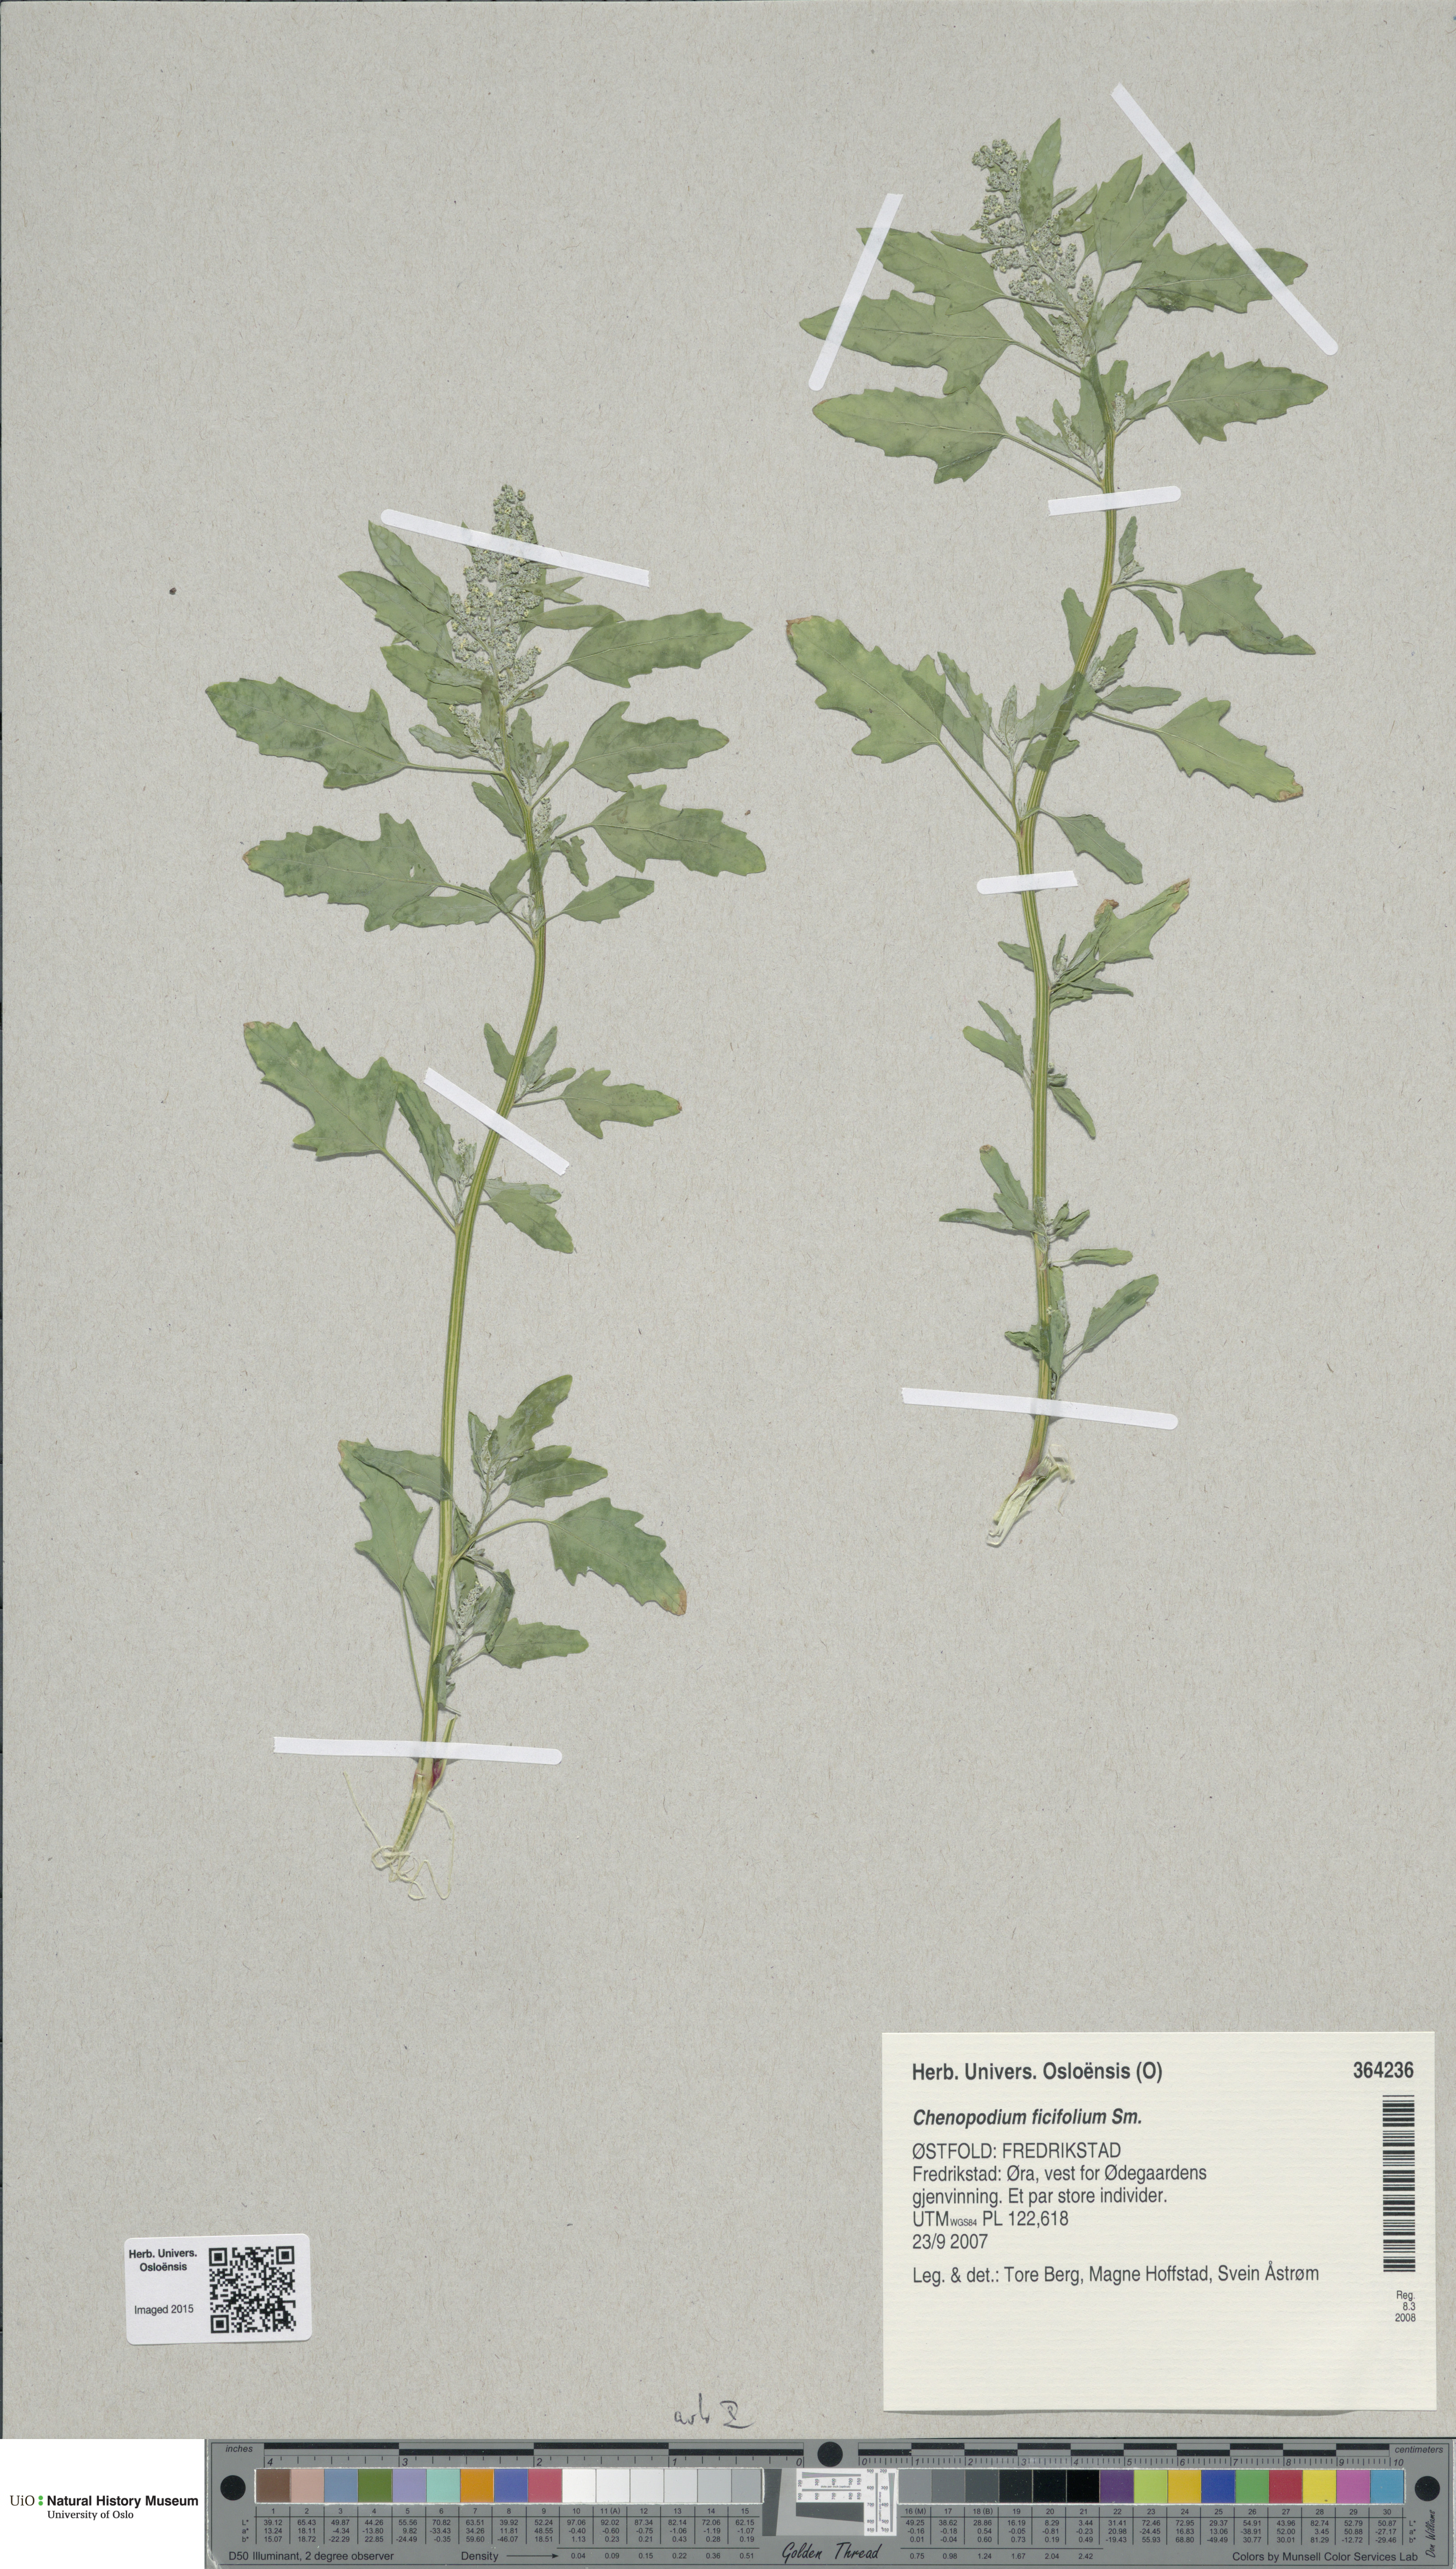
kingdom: Plantae
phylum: Tracheophyta
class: Magnoliopsida
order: Caryophyllales
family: Amaranthaceae
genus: Chenopodium
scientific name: Chenopodium ficifolium
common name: Fig-leaved goosefoot
